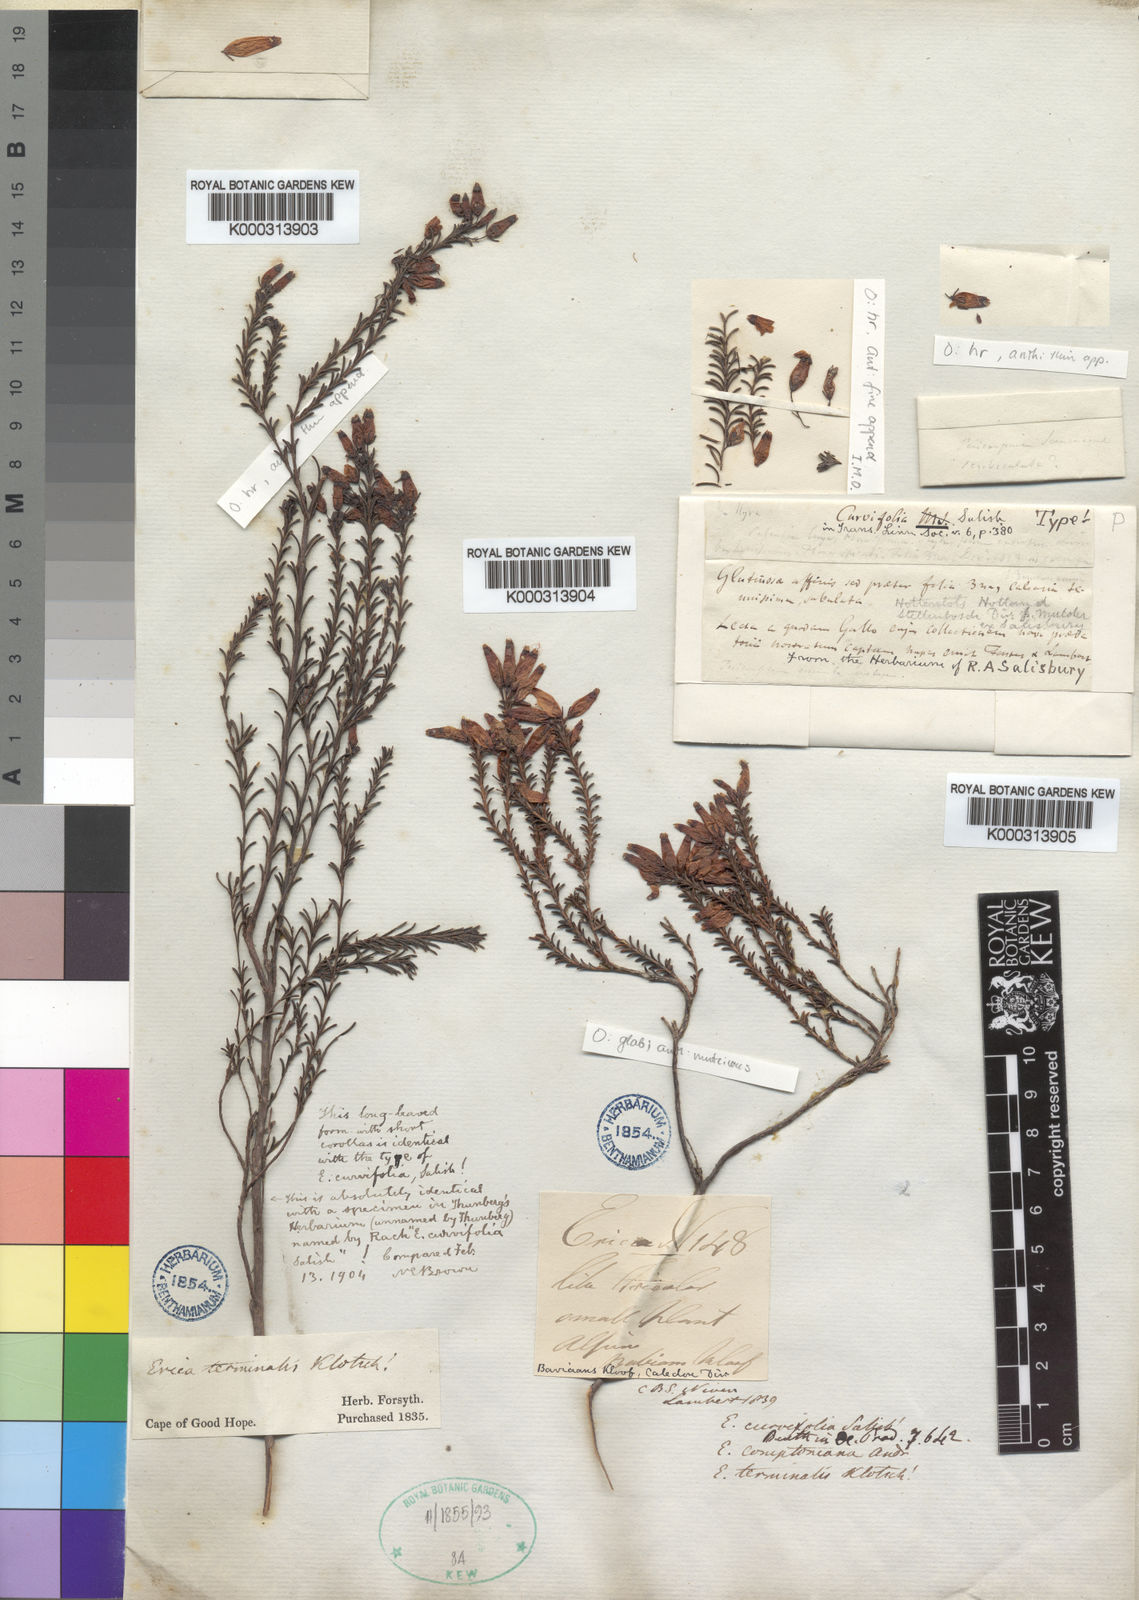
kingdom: Plantae
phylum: Tracheophyta
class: Magnoliopsida
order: Ericales
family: Ericaceae
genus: Erica
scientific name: Erica curvifolia
